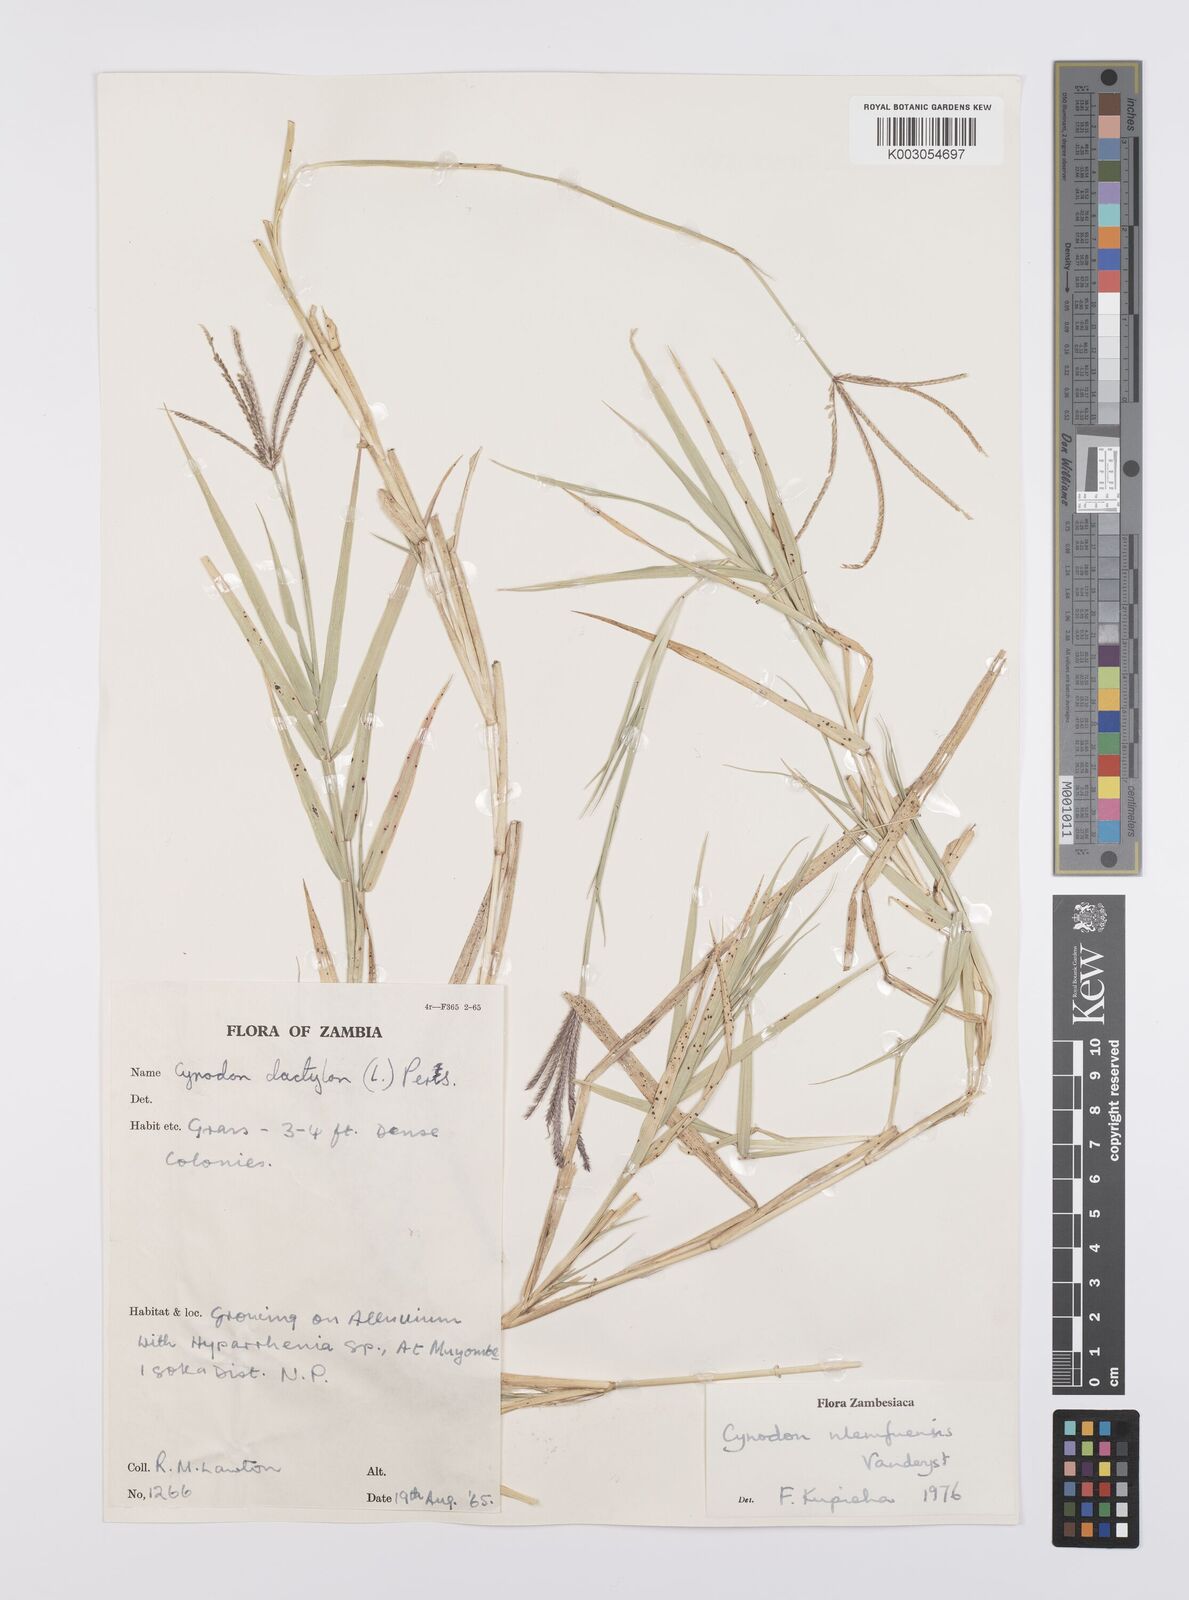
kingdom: Plantae
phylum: Tracheophyta
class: Liliopsida
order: Poales
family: Poaceae
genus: Cynodon
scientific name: Cynodon nlemfuensis
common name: African bermudagrass
